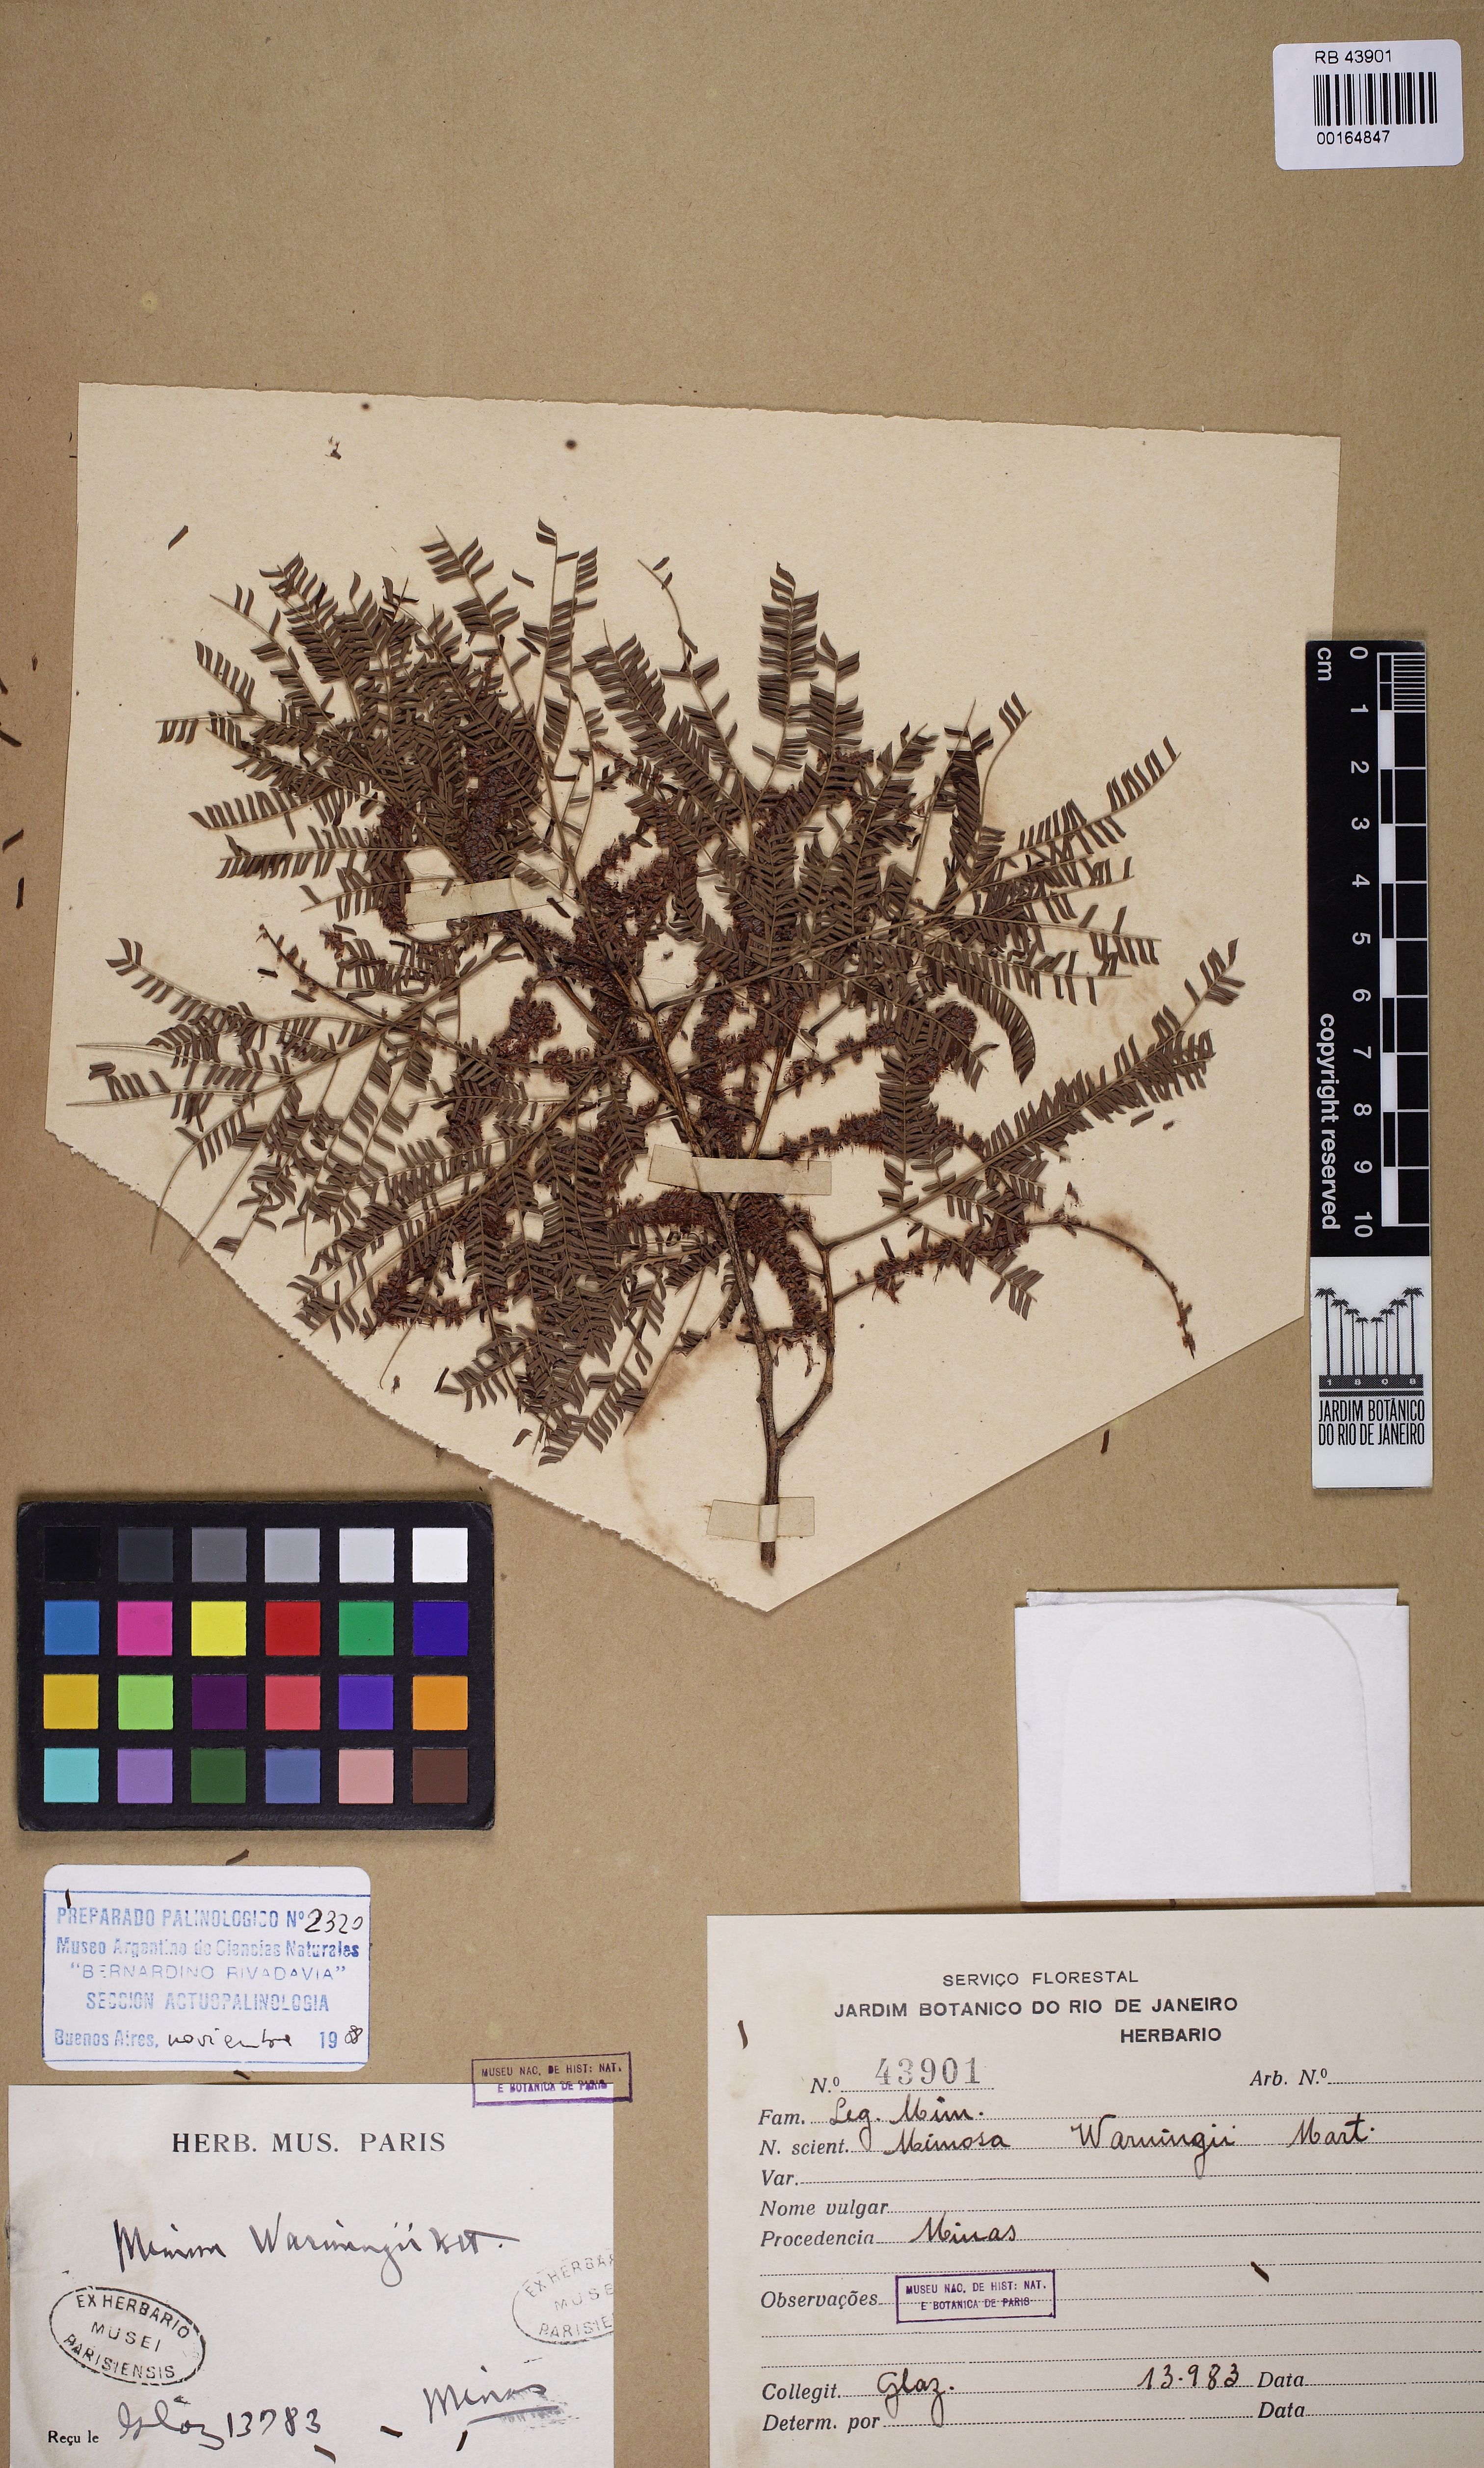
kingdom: Plantae
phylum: Tracheophyta
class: Magnoliopsida
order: Fabales
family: Fabaceae
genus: Pseudopiptadenia
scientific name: Pseudopiptadenia warmingii
